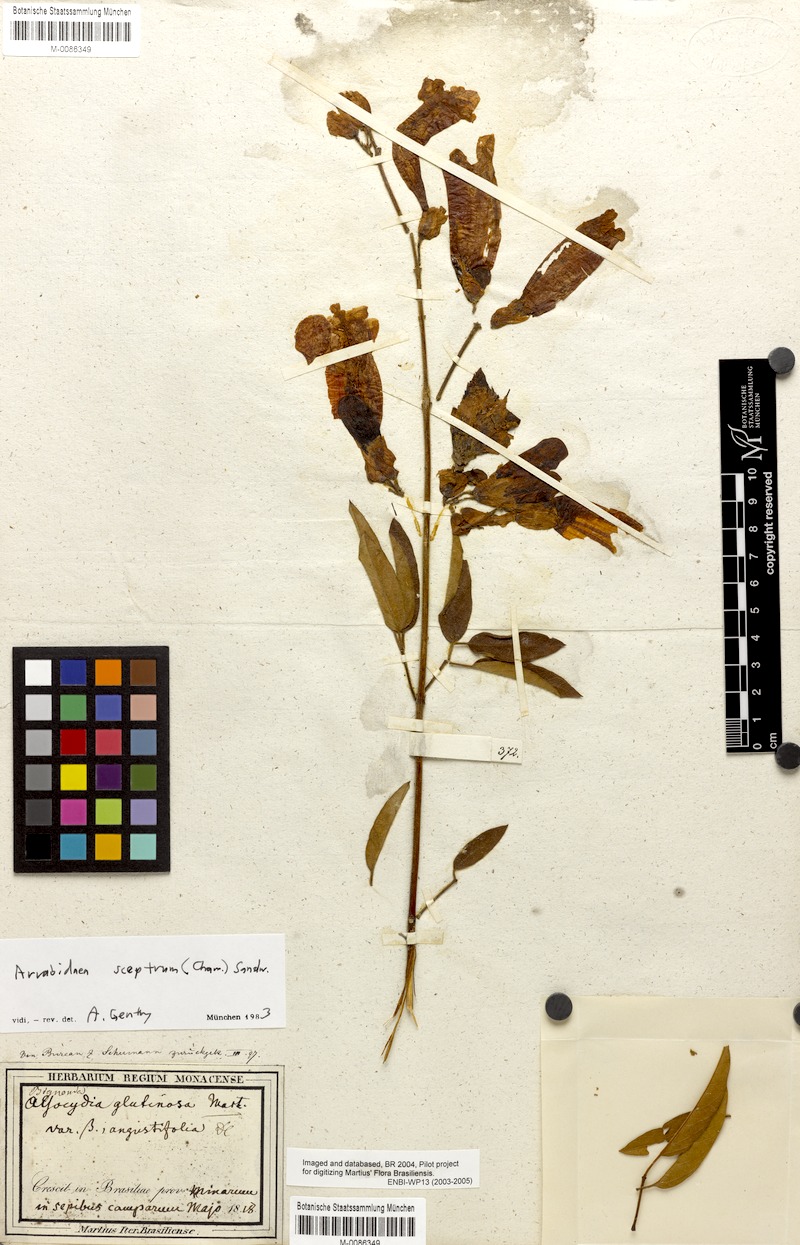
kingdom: Plantae
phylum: Tracheophyta
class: Magnoliopsida
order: Lamiales
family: Bignoniaceae
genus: Cuspidaria
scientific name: Cuspidaria sceptrum
